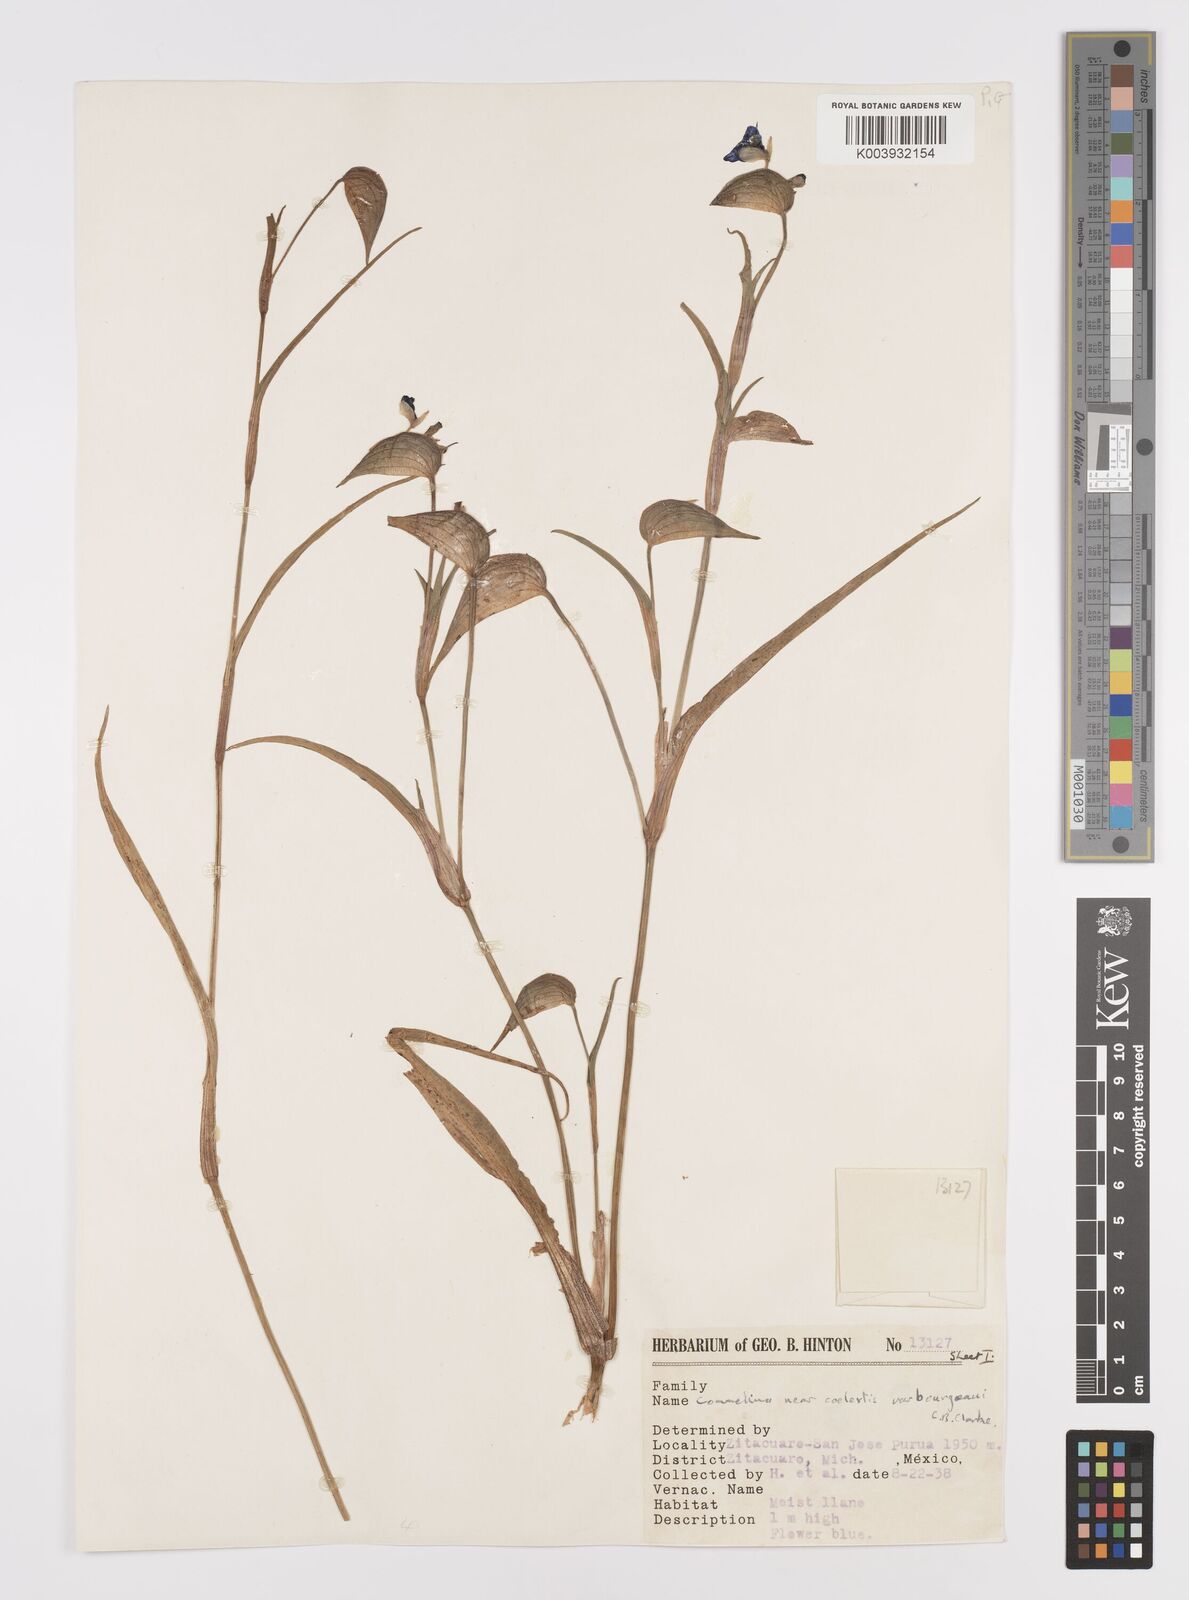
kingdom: Plantae
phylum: Tracheophyta
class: Liliopsida
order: Commelinales
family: Commelinaceae
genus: Commelina
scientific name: Commelina standleyi
